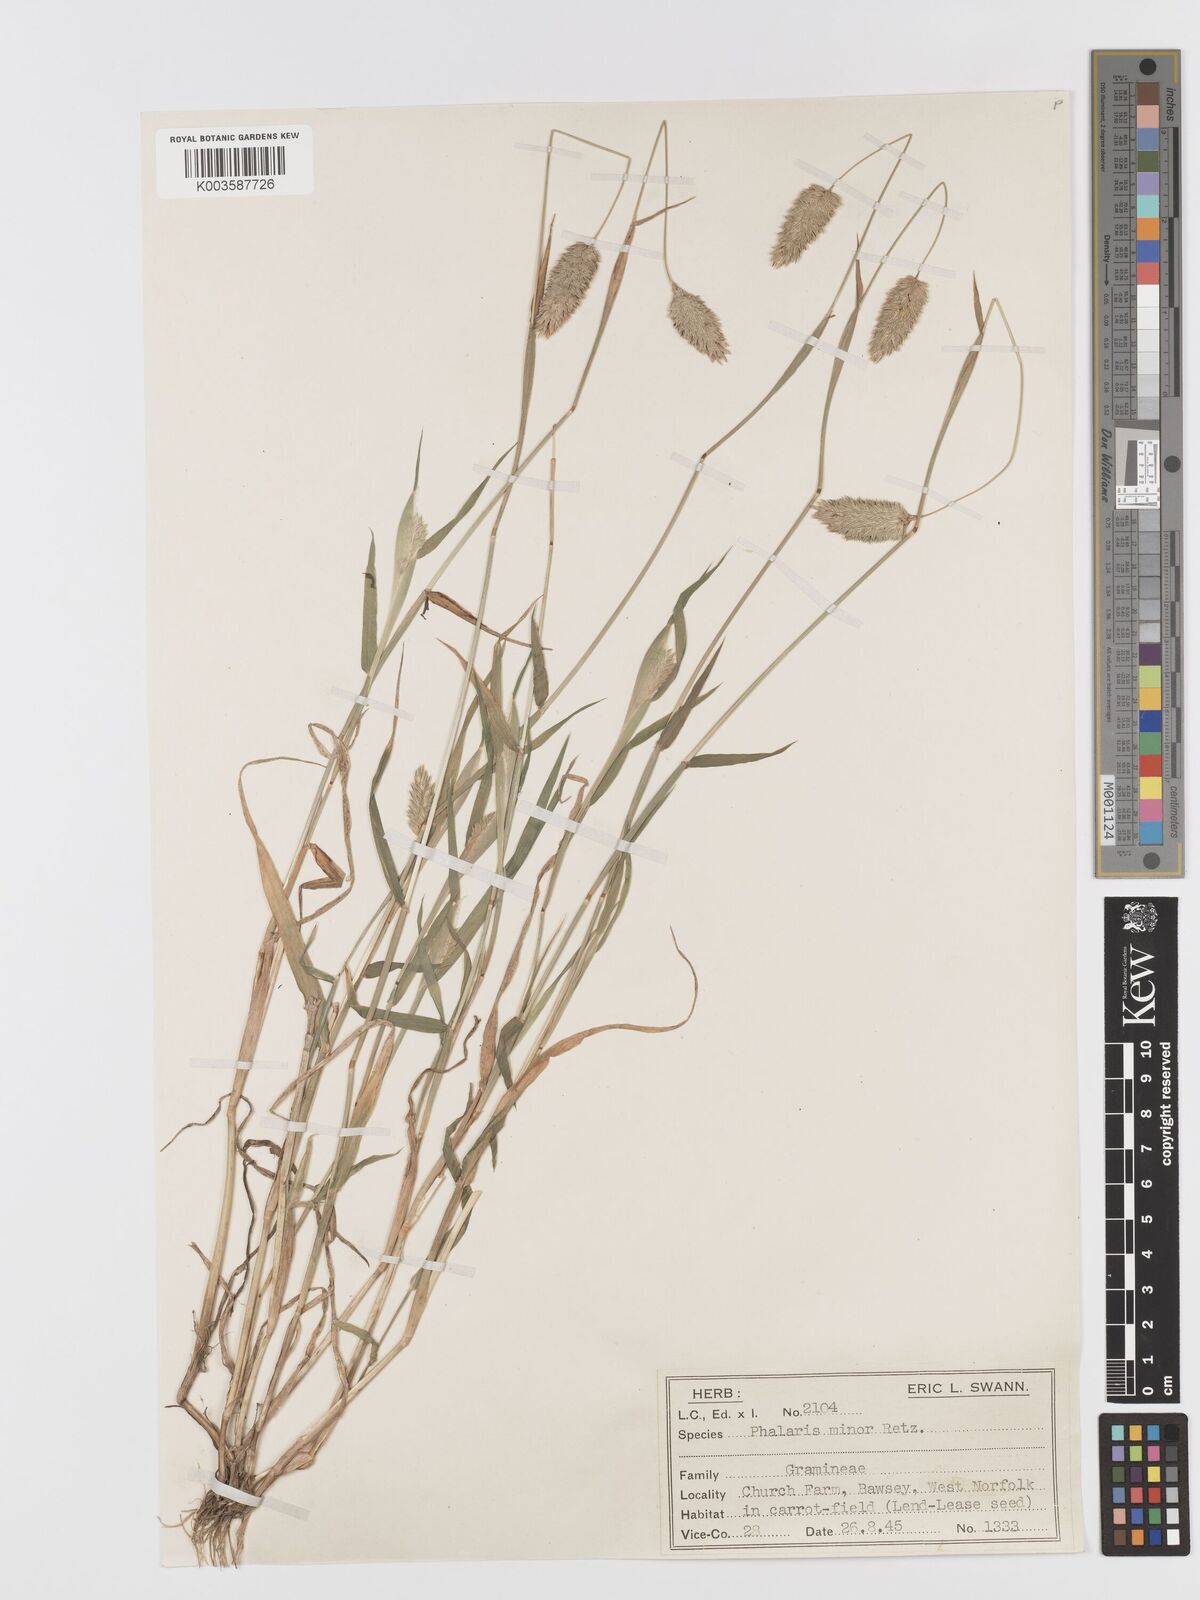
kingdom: Plantae
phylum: Tracheophyta
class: Liliopsida
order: Poales
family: Poaceae
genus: Phalaris
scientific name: Phalaris minor
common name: Littleseed canarygrass
